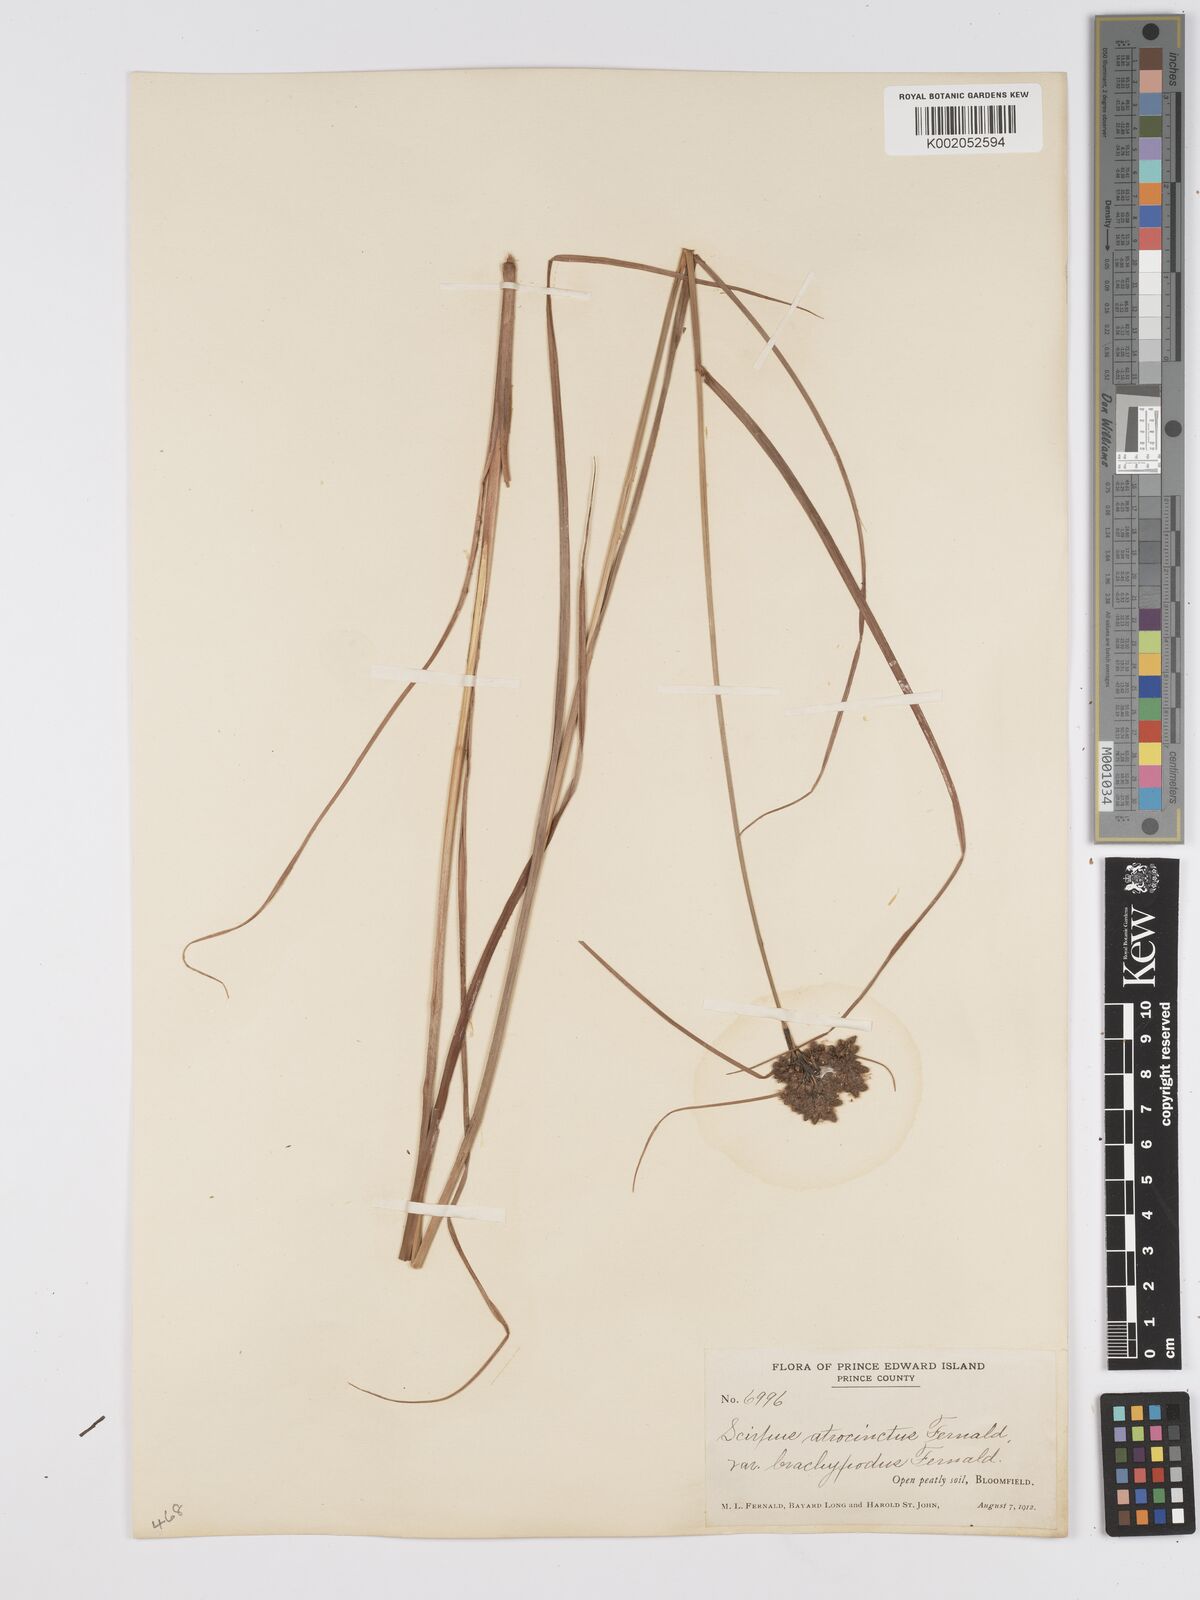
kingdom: Plantae
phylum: Tracheophyta
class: Liliopsida
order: Poales
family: Cyperaceae
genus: Scirpus
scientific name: Scirpus atrocinctus
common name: Black-girdled bulrush
